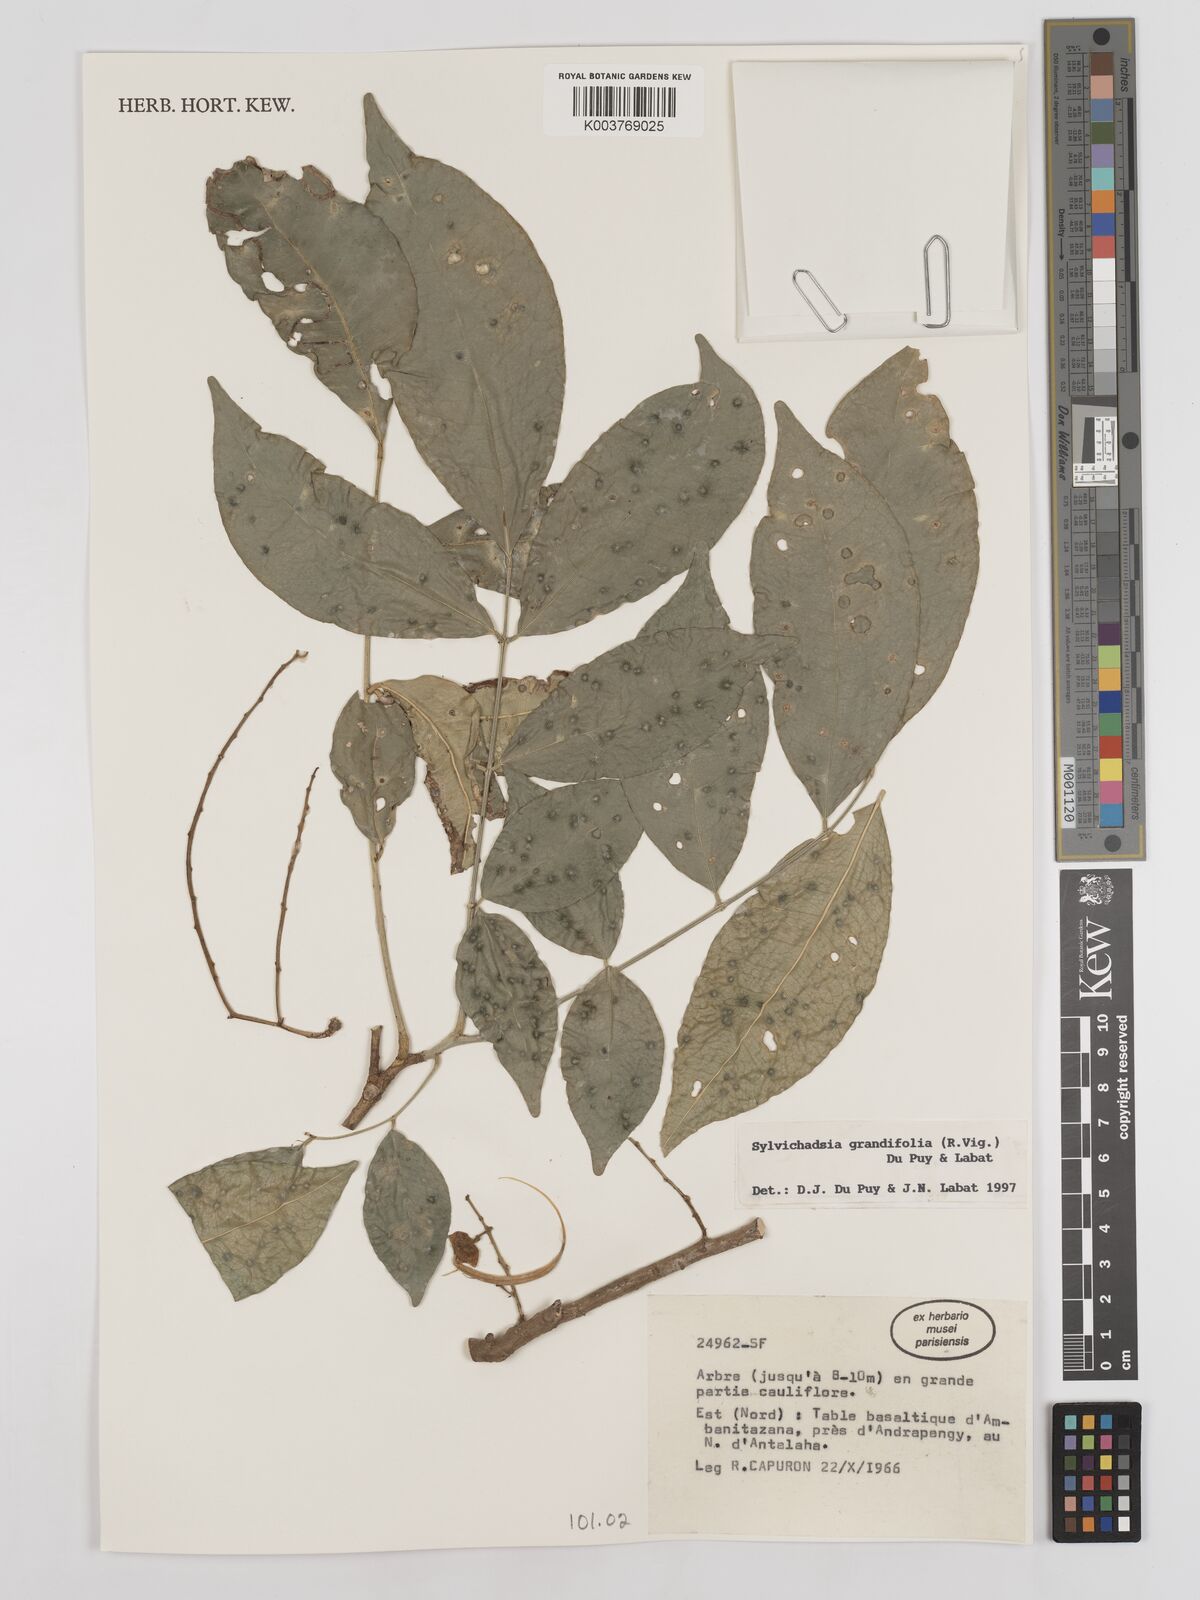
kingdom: Plantae
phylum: Tracheophyta
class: Magnoliopsida
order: Fabales
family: Fabaceae
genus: Sylvichadsia
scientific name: Sylvichadsia grandifolia
